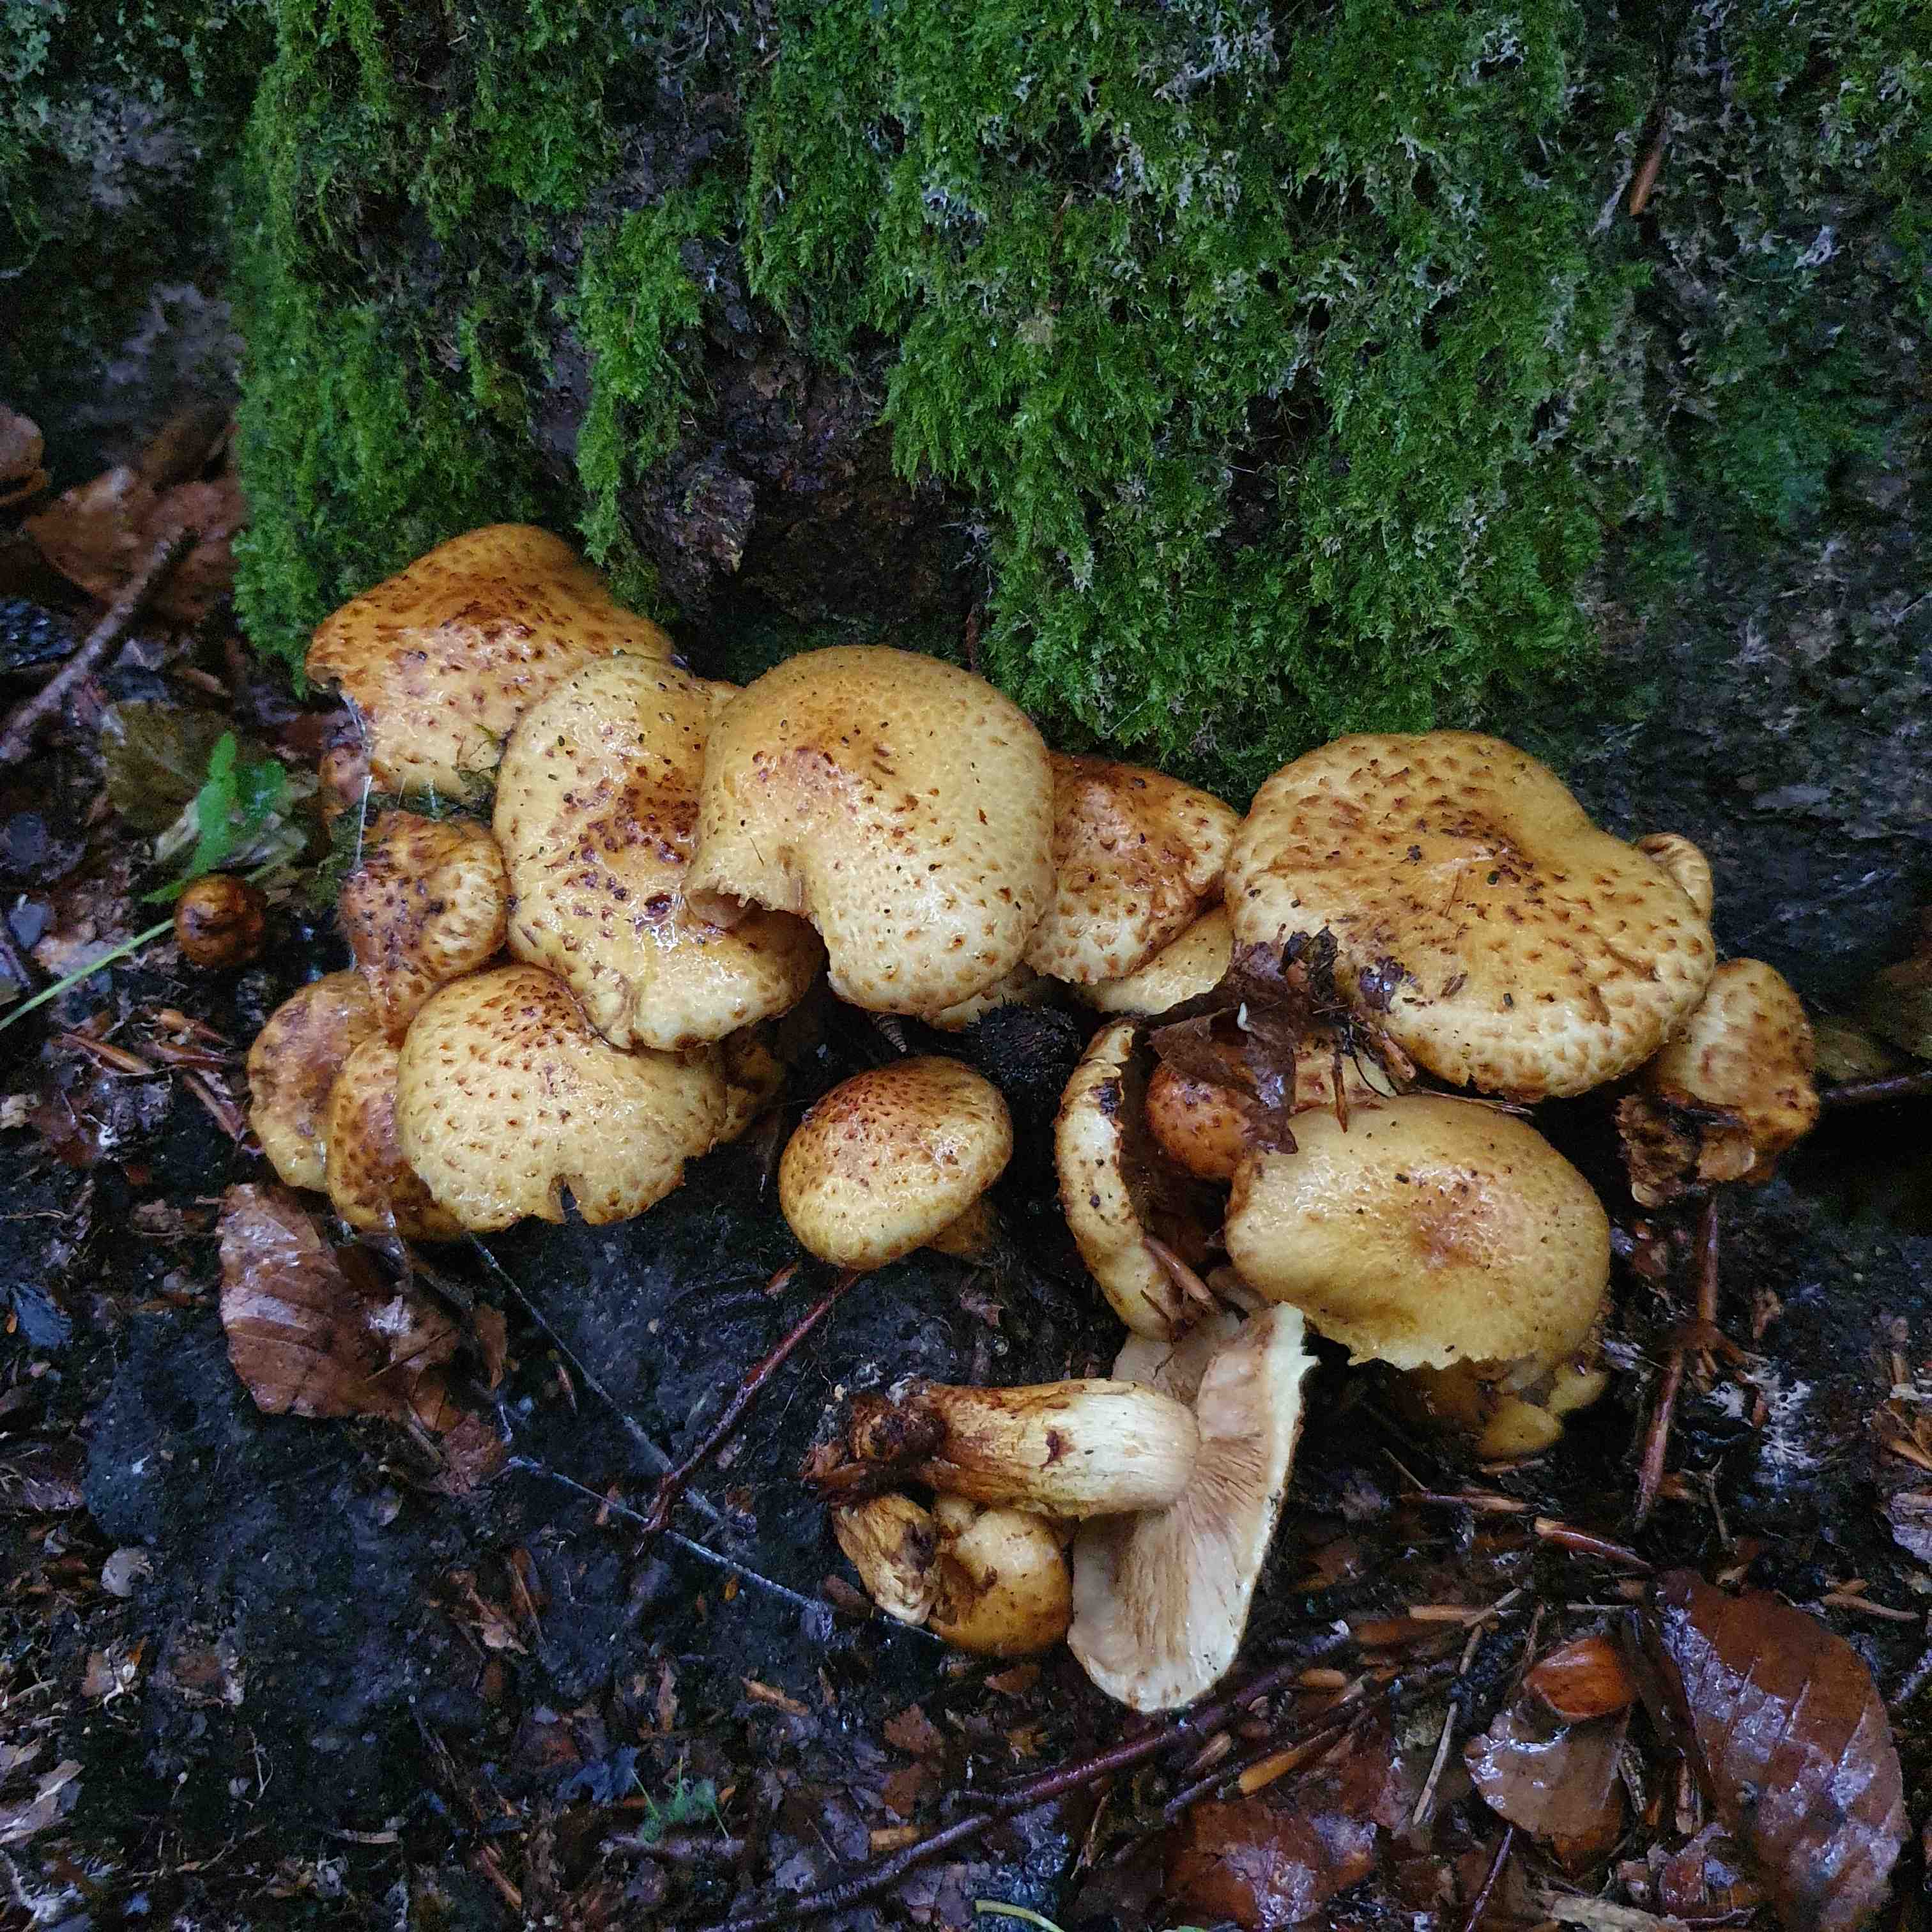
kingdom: Fungi
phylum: Basidiomycota
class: Agaricomycetes
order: Agaricales
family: Strophariaceae
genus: Pholiota
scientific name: Pholiota adiposa
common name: højtsiddende skælhat
